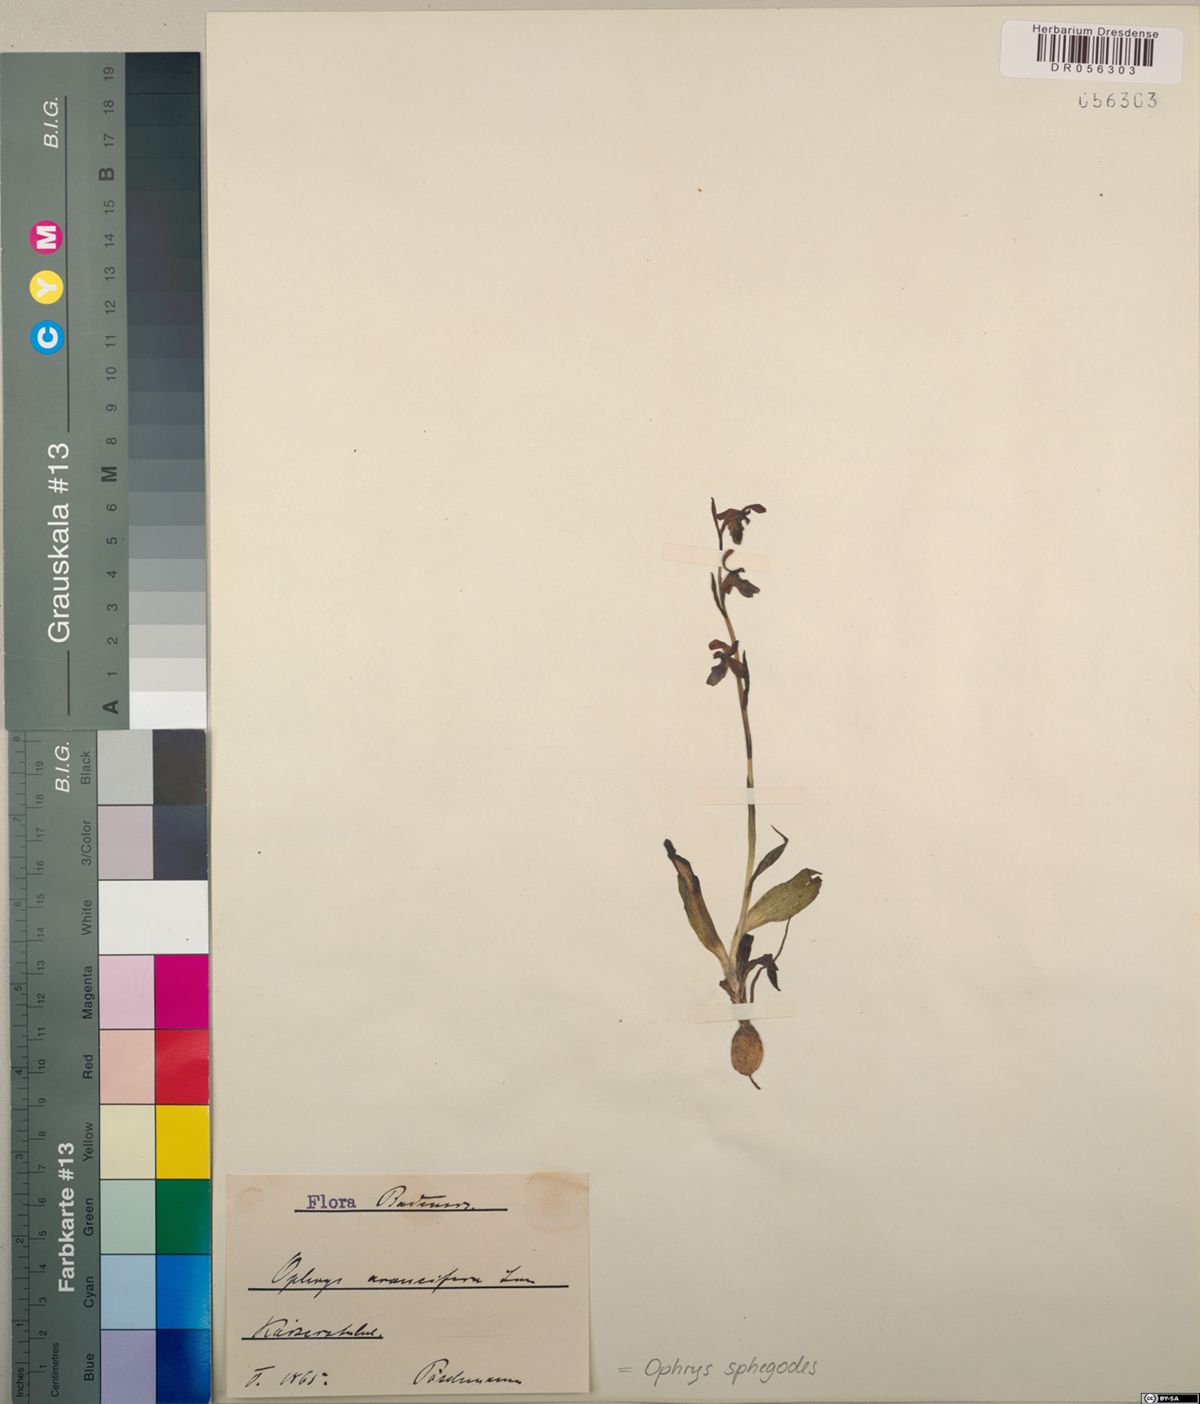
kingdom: Plantae
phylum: Tracheophyta
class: Liliopsida
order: Asparagales
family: Orchidaceae
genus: Ophrys
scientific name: Ophrys sphegodes
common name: Early spider-orchid
